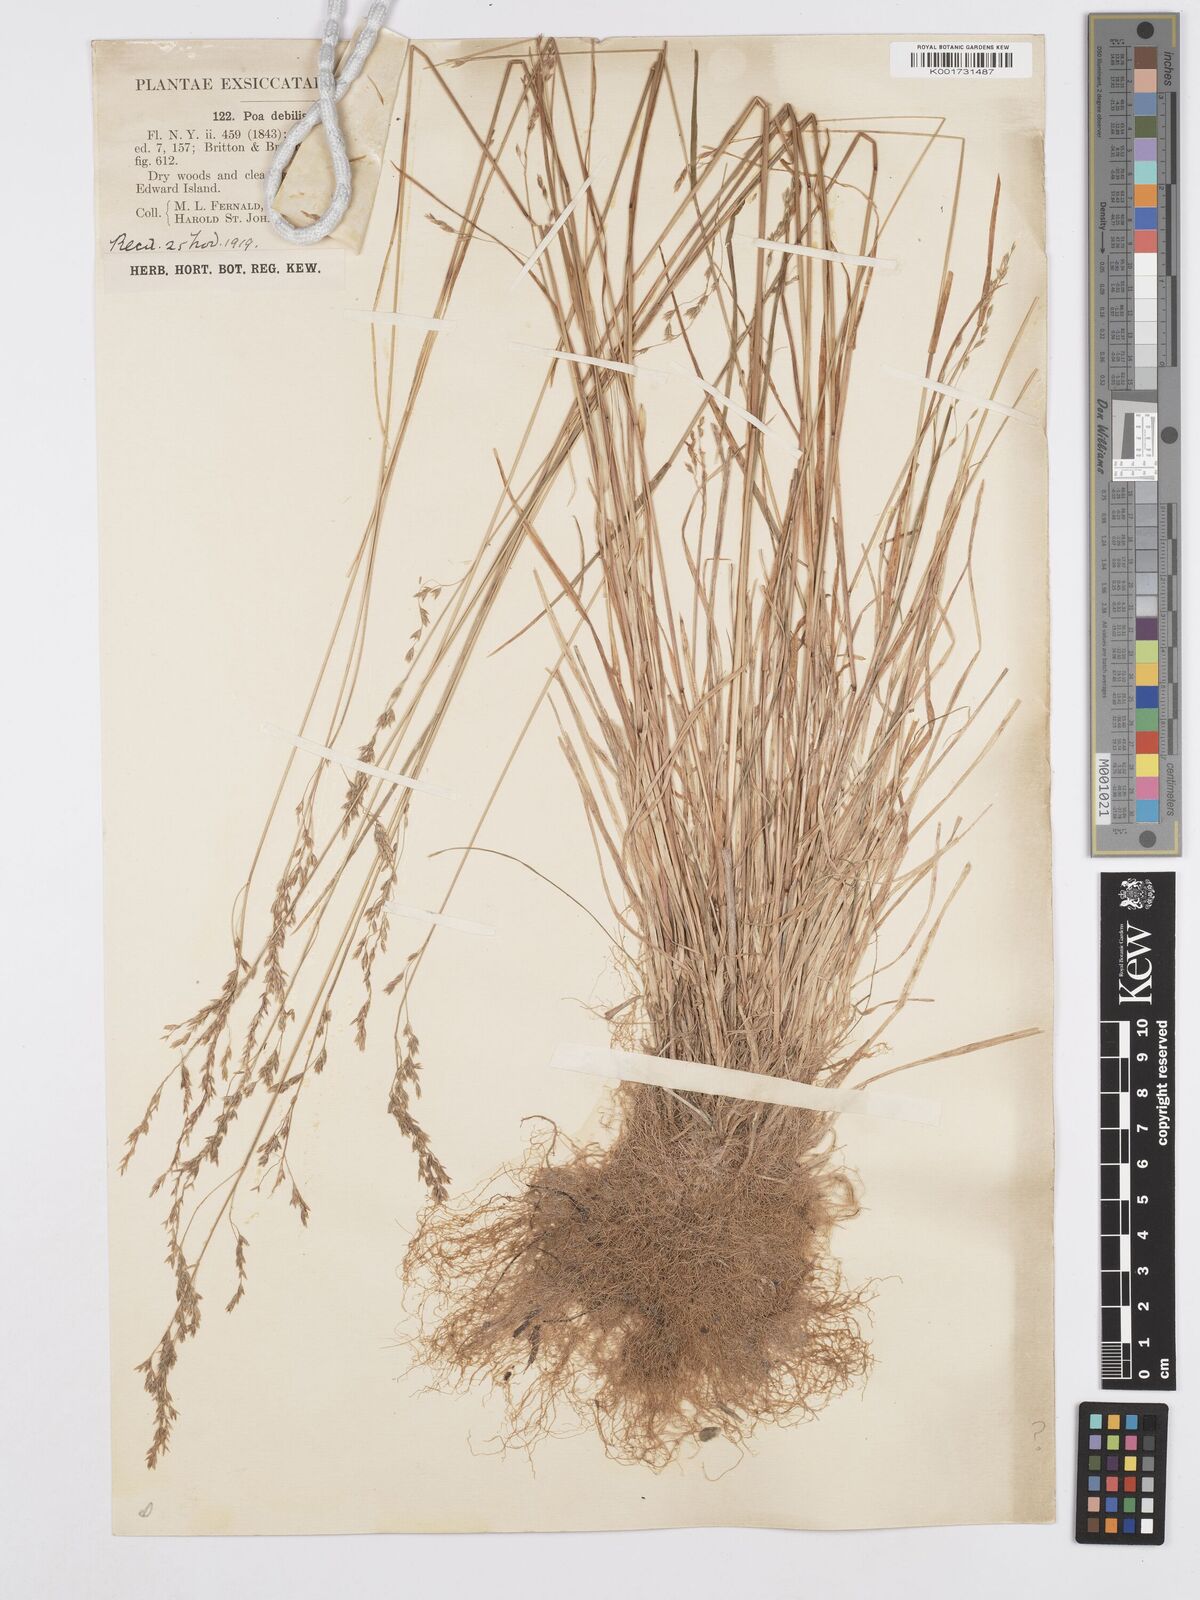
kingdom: Plantae
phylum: Tracheophyta
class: Liliopsida
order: Poales
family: Poaceae
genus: Poa
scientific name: Poa saltuensis
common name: Bushy pasture speargrass
